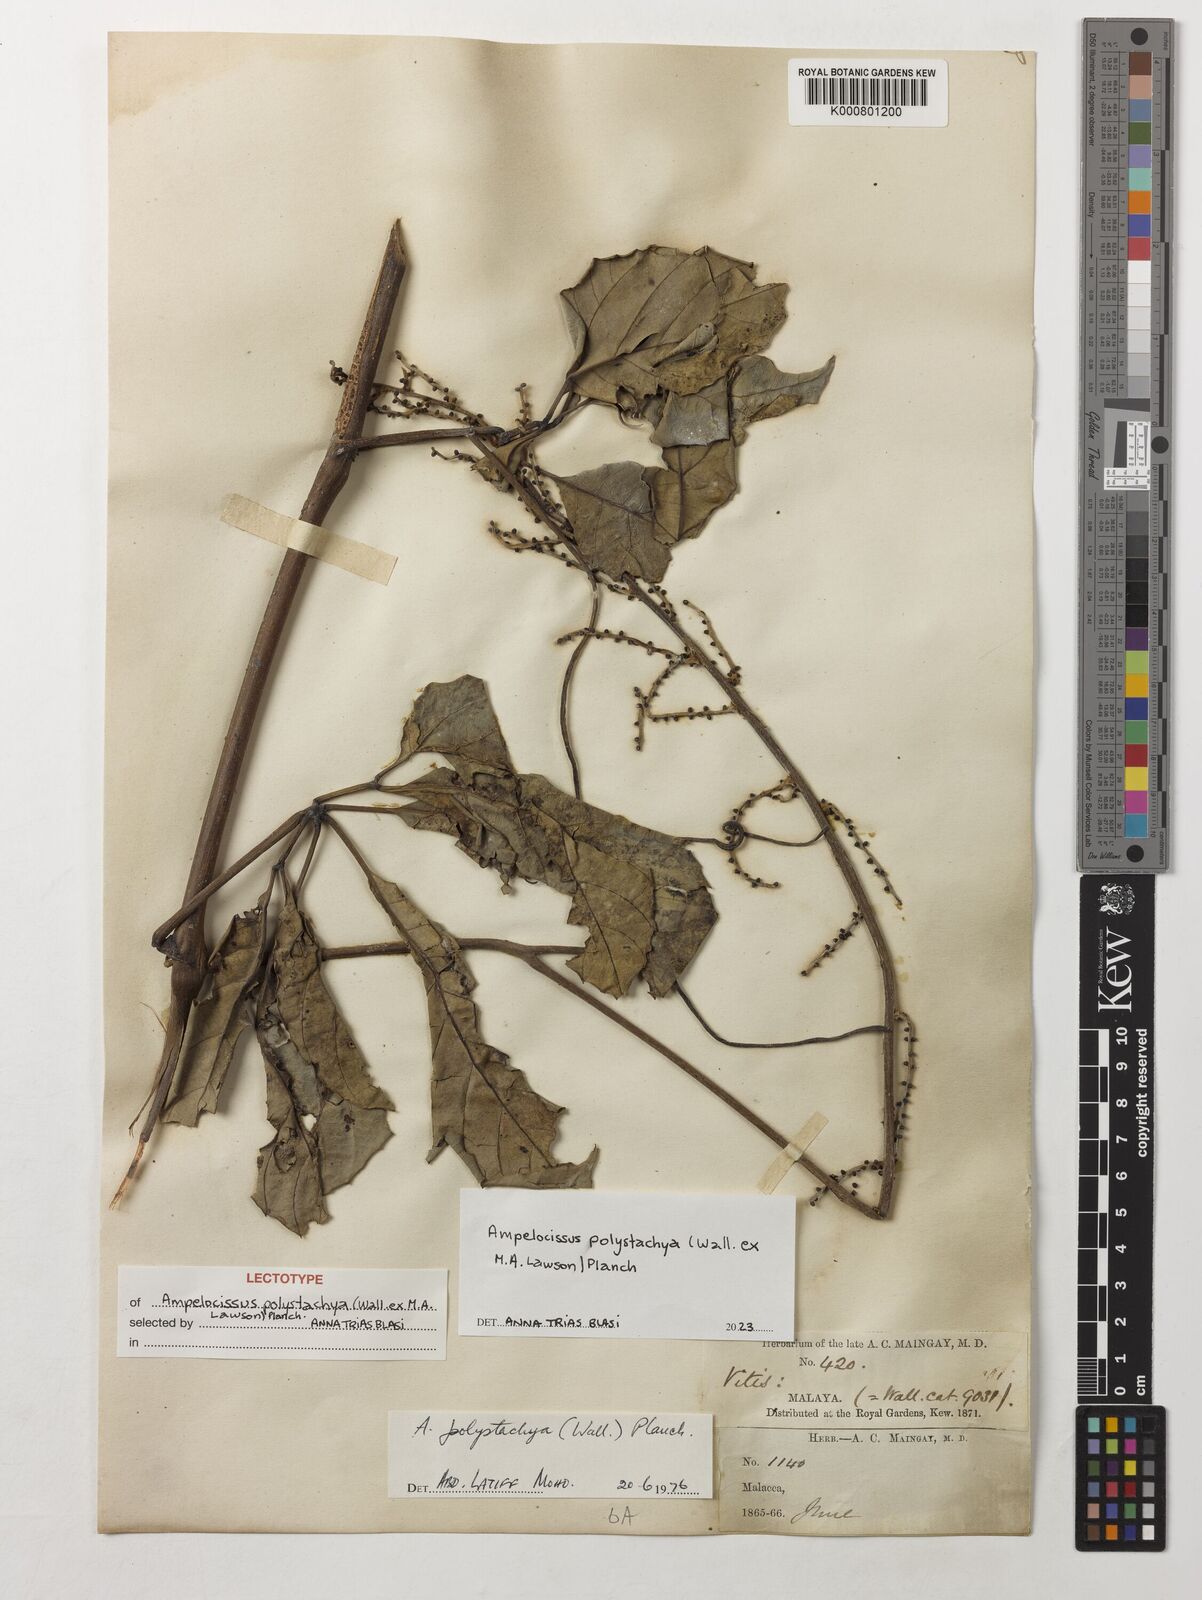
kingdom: Plantae
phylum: Tracheophyta
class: Magnoliopsida
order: Vitales
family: Vitaceae
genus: Ampelocissus
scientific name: Ampelocissus polystachya
